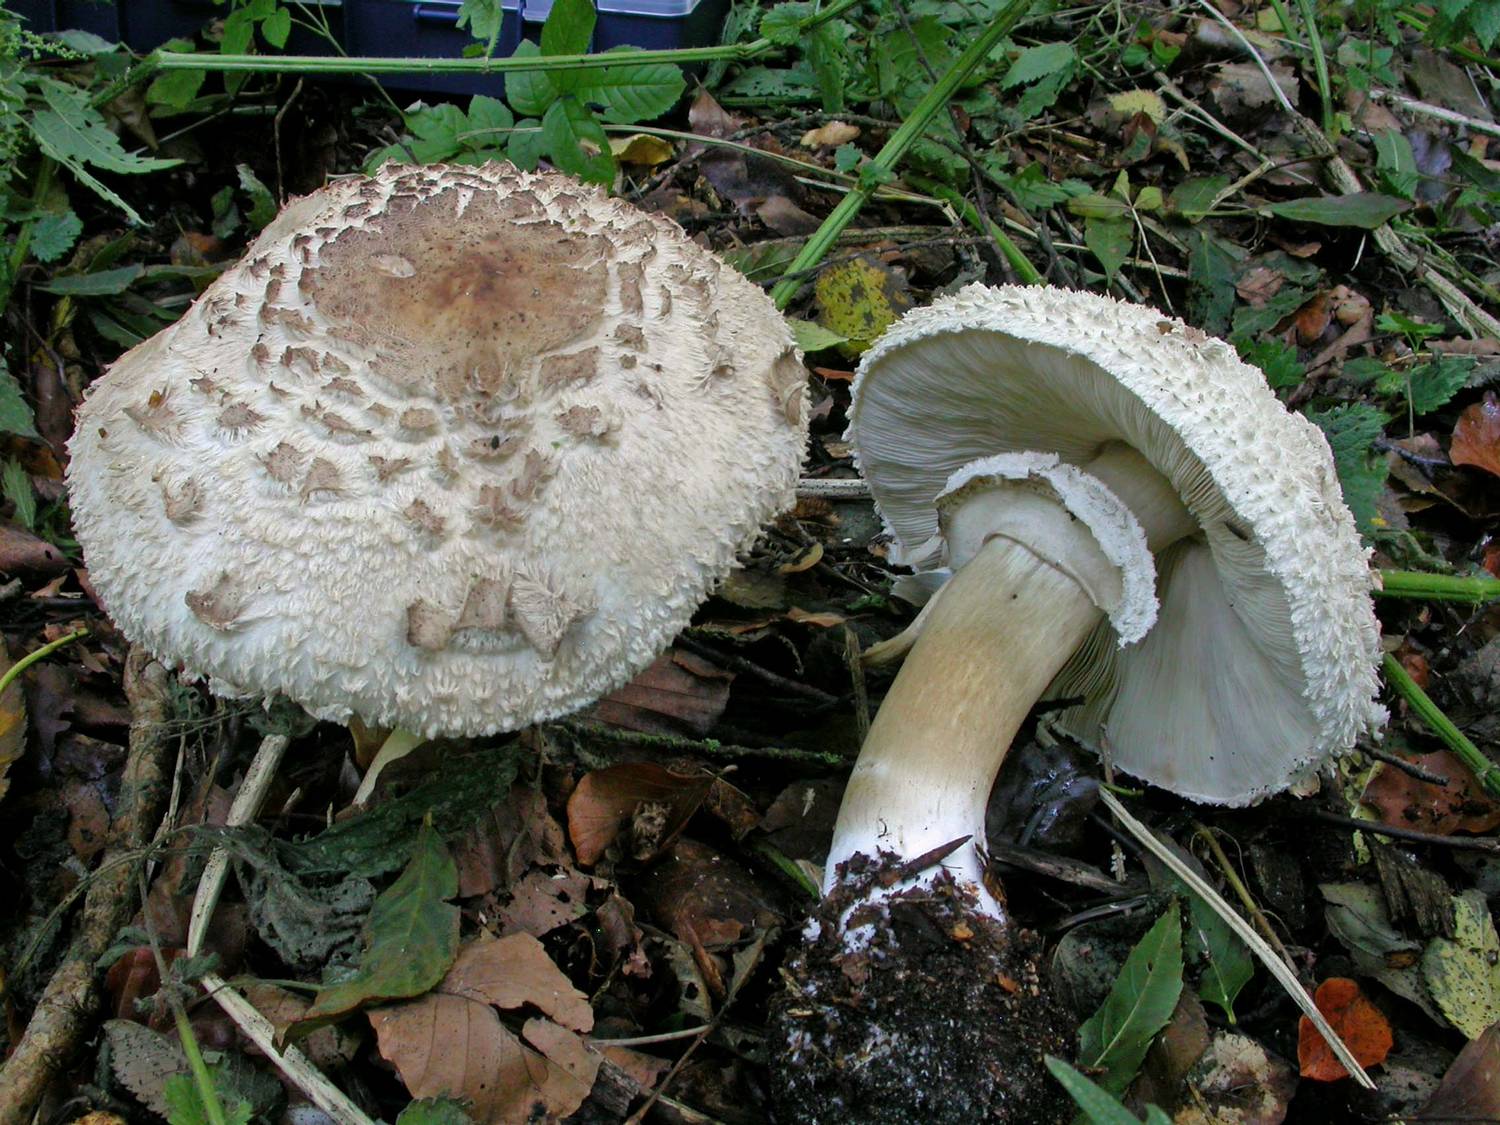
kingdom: Fungi
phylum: Basidiomycota
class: Agaricomycetes
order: Agaricales
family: Agaricaceae
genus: Chlorophyllum
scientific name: Chlorophyllum olivieri
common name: almindelig rabarberhat
